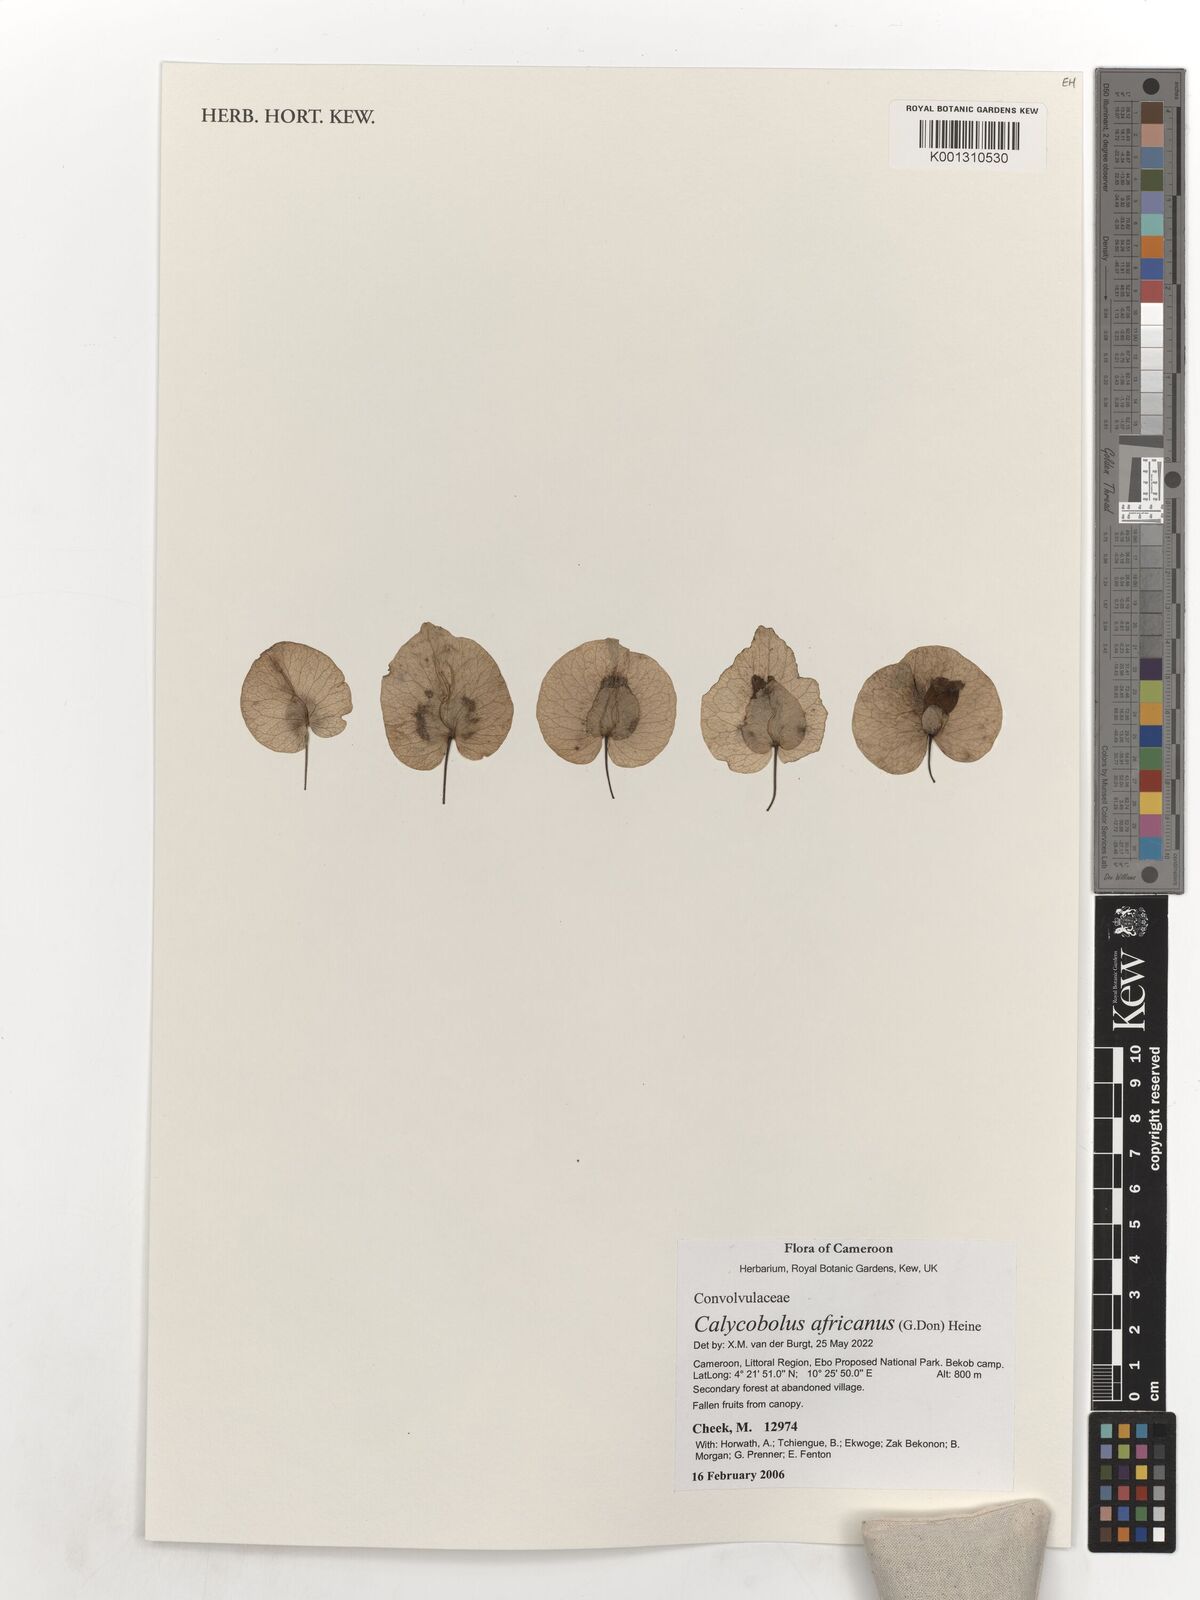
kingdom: Plantae
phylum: Tracheophyta
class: Magnoliopsida
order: Solanales
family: Convolvulaceae
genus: Calycobolus
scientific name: Calycobolus africanus
